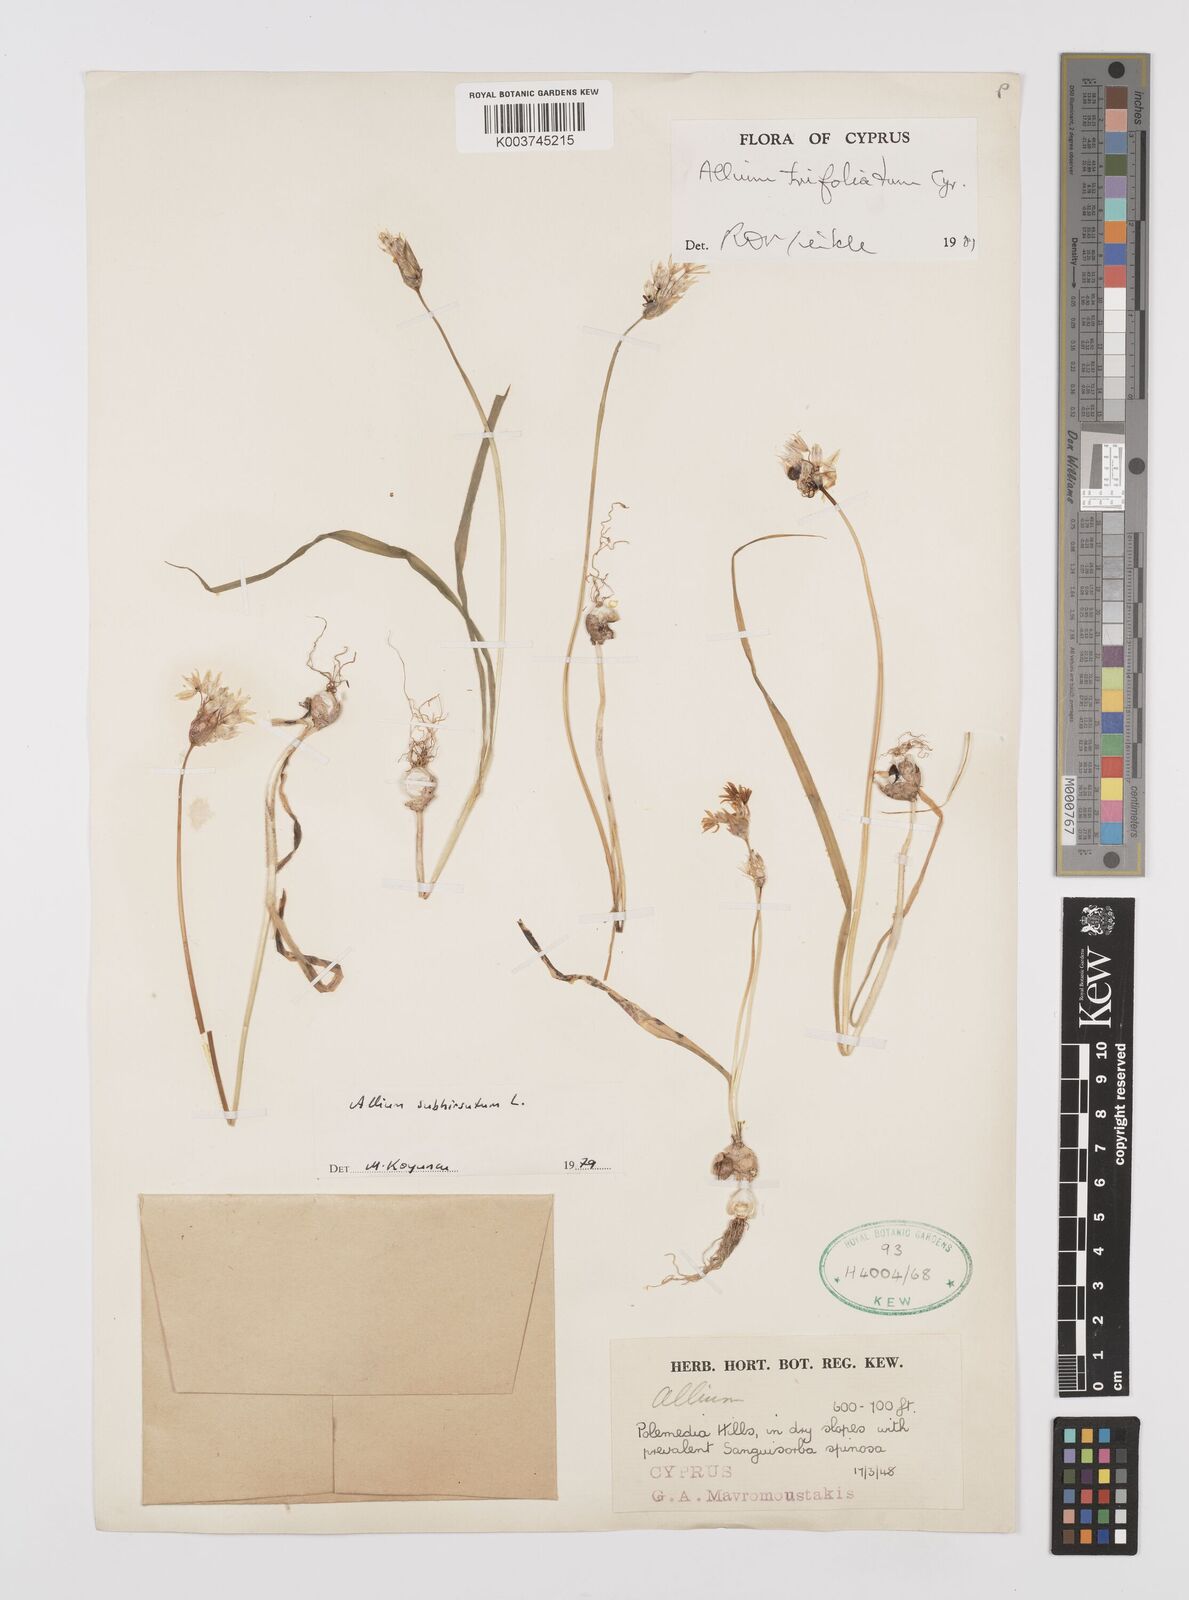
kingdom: Plantae
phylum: Tracheophyta
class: Liliopsida
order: Asparagales
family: Amaryllidaceae
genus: Allium
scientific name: Allium trifoliatum
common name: Pink garlic
